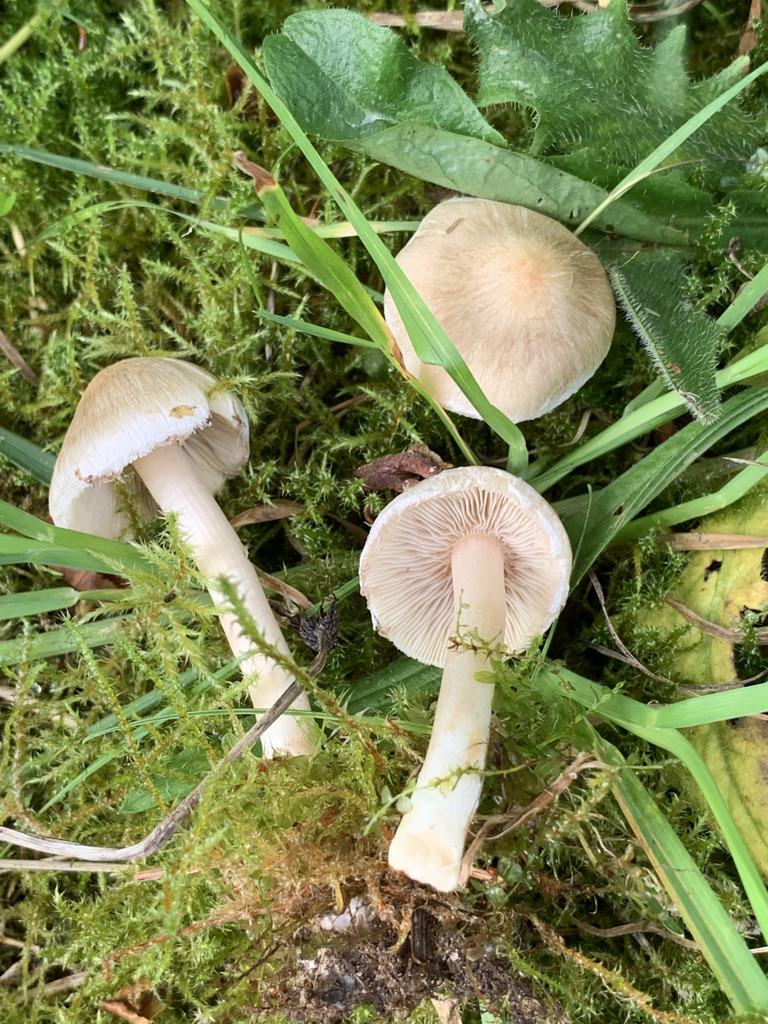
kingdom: Fungi
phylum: Basidiomycota
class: Agaricomycetes
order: Agaricales
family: Inocybaceae
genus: Inocybe
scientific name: Inocybe sindonia
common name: bleg trævlhat
